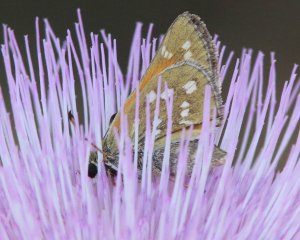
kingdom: Animalia
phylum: Arthropoda
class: Insecta
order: Lepidoptera
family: Hesperiidae
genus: Mastor
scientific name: Mastor eos
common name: Dotted Roadside-Skipper
